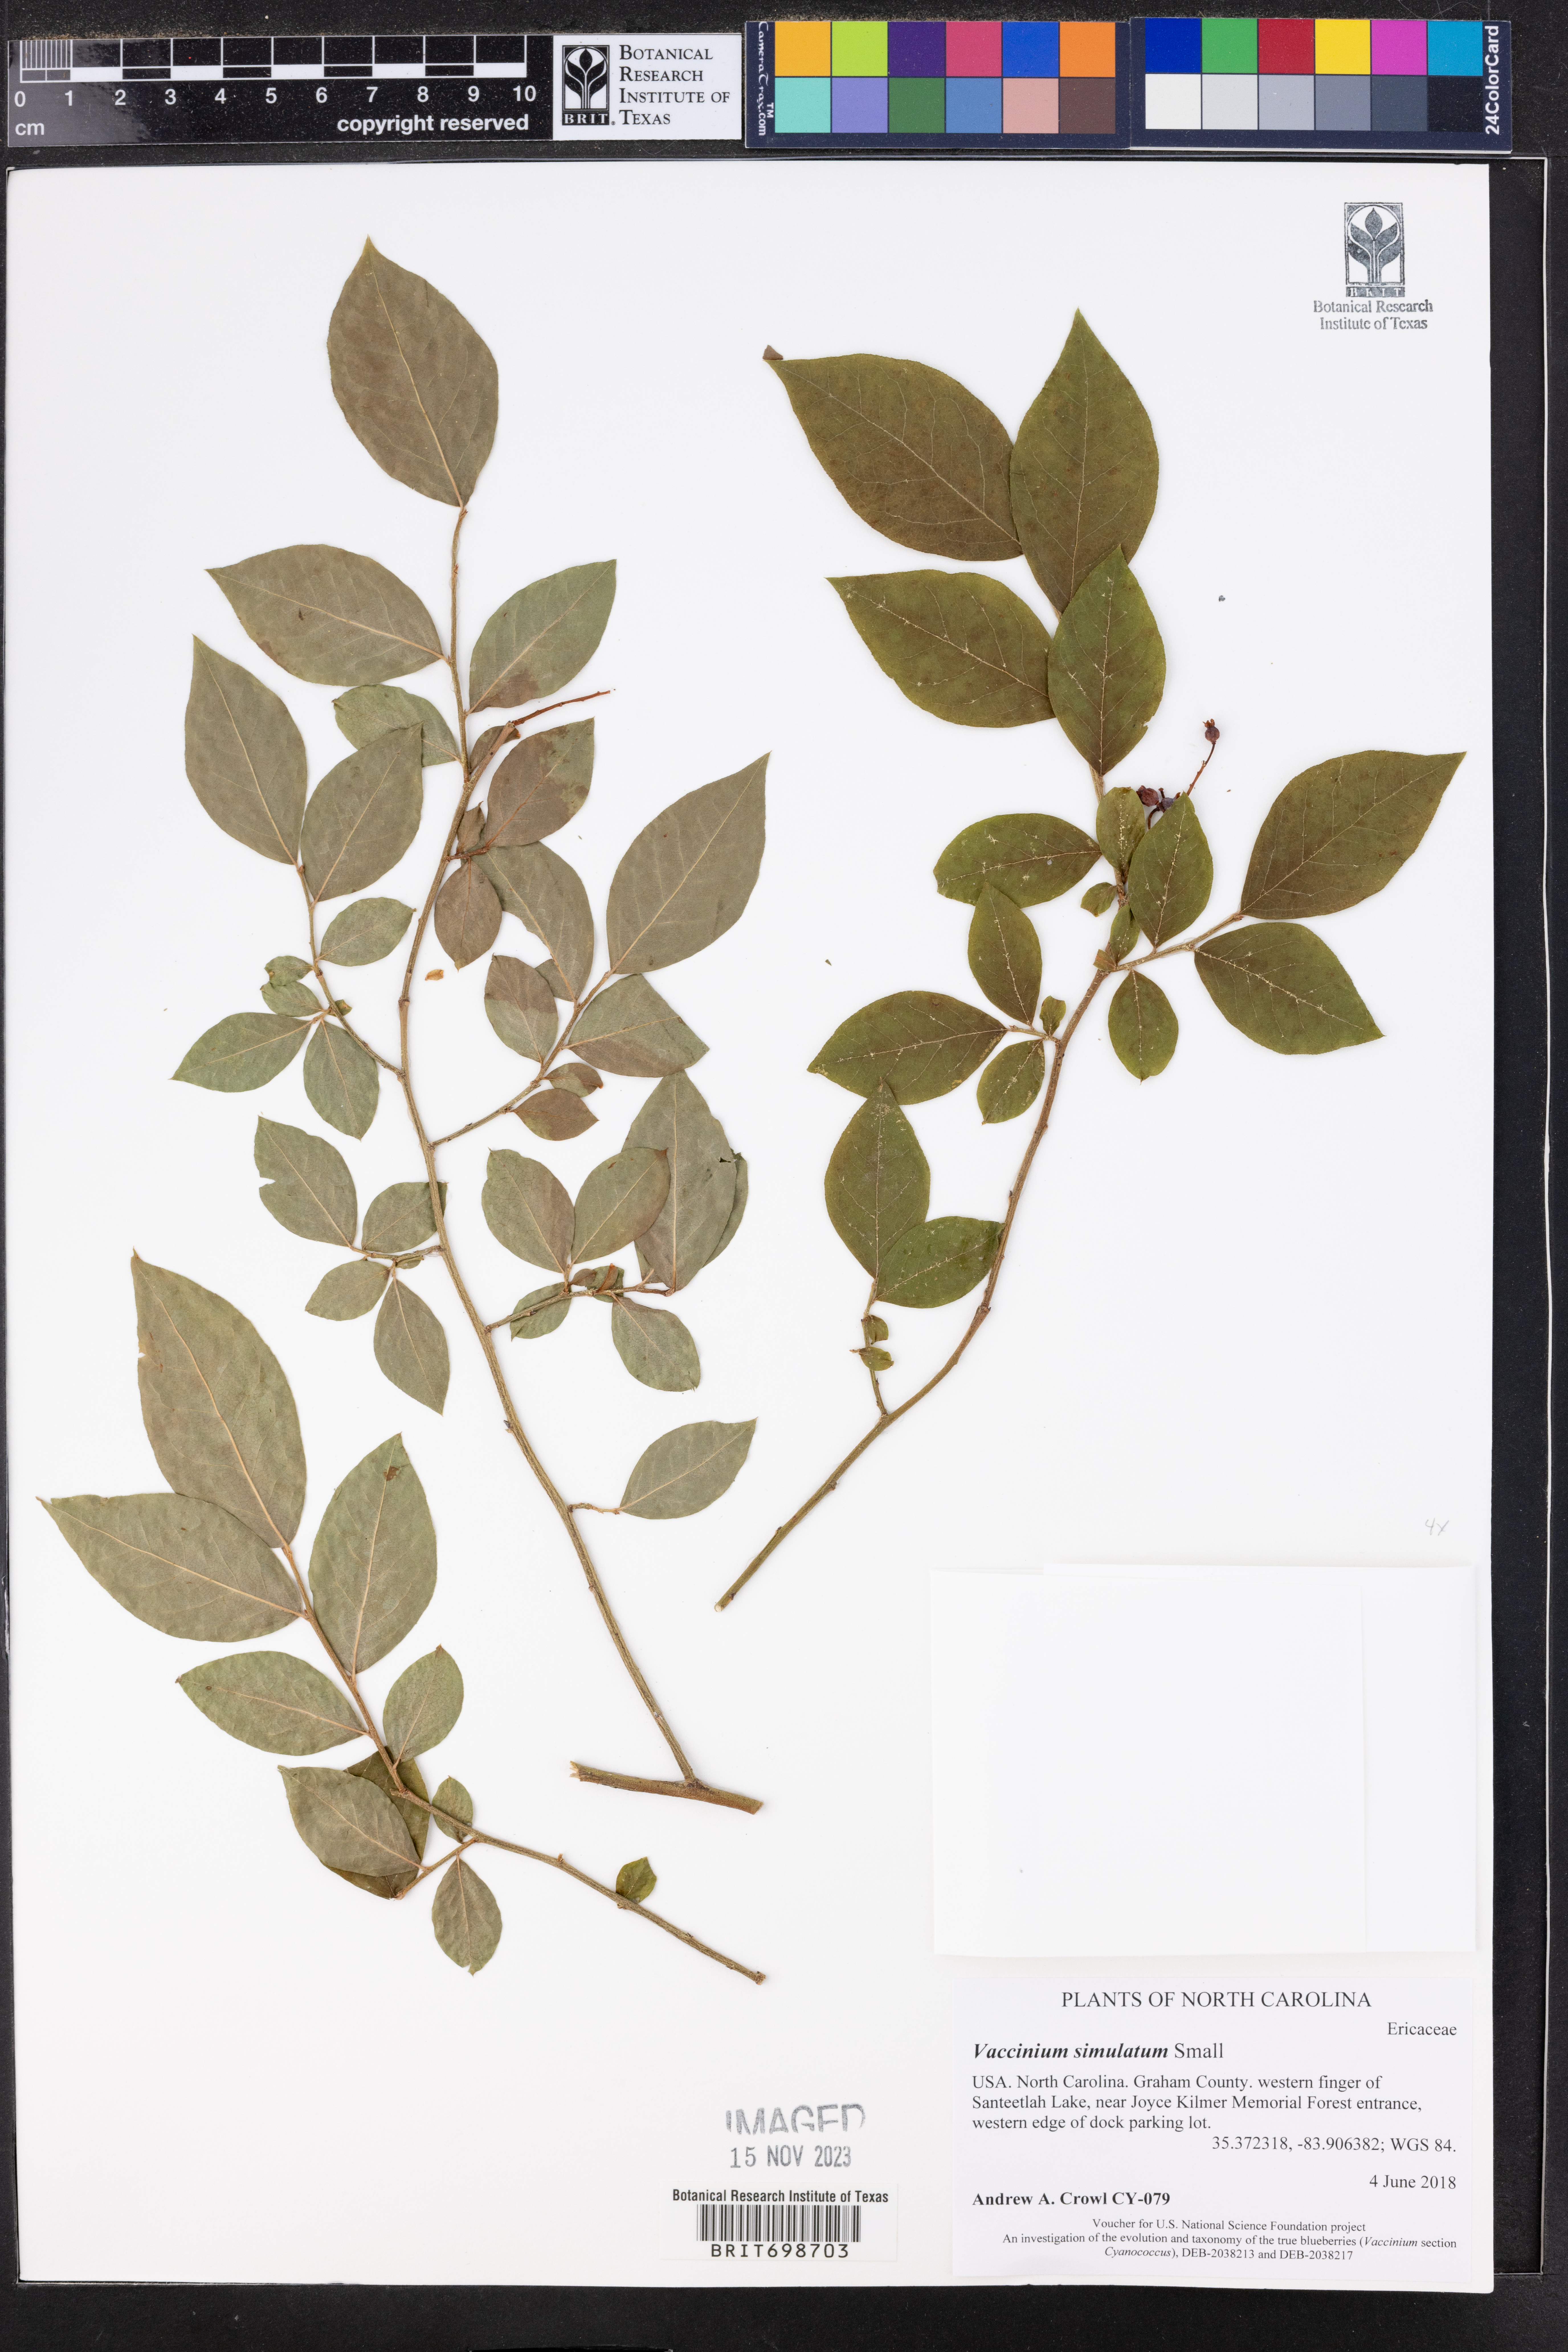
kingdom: Plantae
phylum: Tracheophyta
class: Magnoliopsida
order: Ericales
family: Ericaceae
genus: Vaccinium
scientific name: Vaccinium corymbosum
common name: Blueberry
